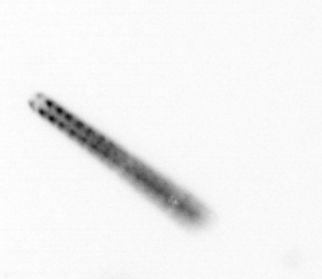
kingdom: Chromista
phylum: Ochrophyta
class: Bacillariophyceae
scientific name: Bacillariophyceae
